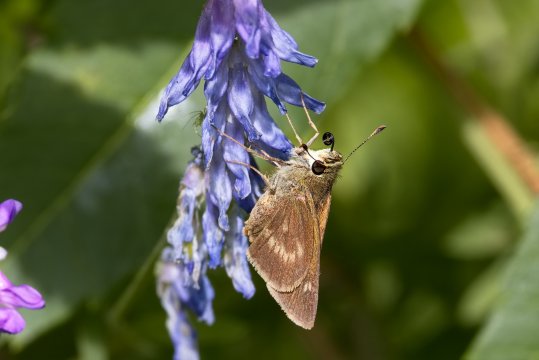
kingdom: Animalia
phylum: Arthropoda
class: Insecta
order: Lepidoptera
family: Hesperiidae
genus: Polites
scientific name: Polites
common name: Long Dash Skipper
